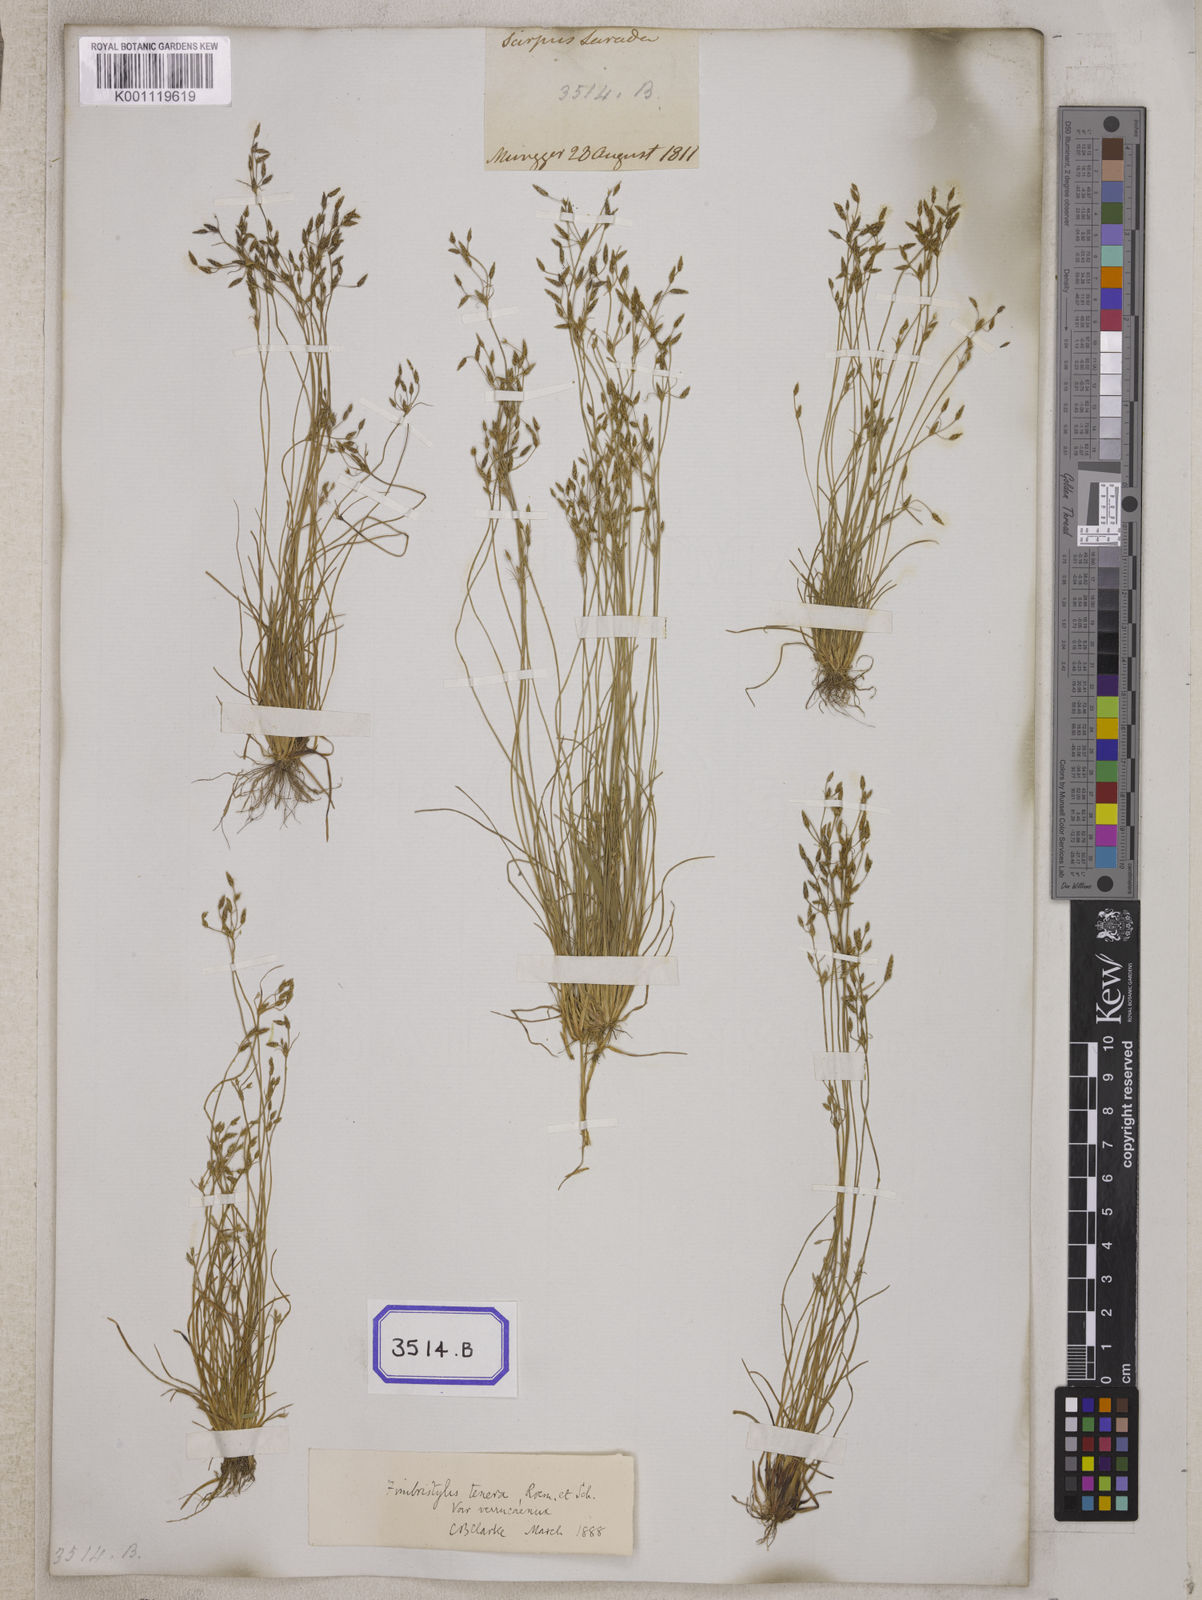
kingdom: Plantae
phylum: Tracheophyta
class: Liliopsida
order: Poales
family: Cyperaceae
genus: Fimbristylis
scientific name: Fimbristylis
